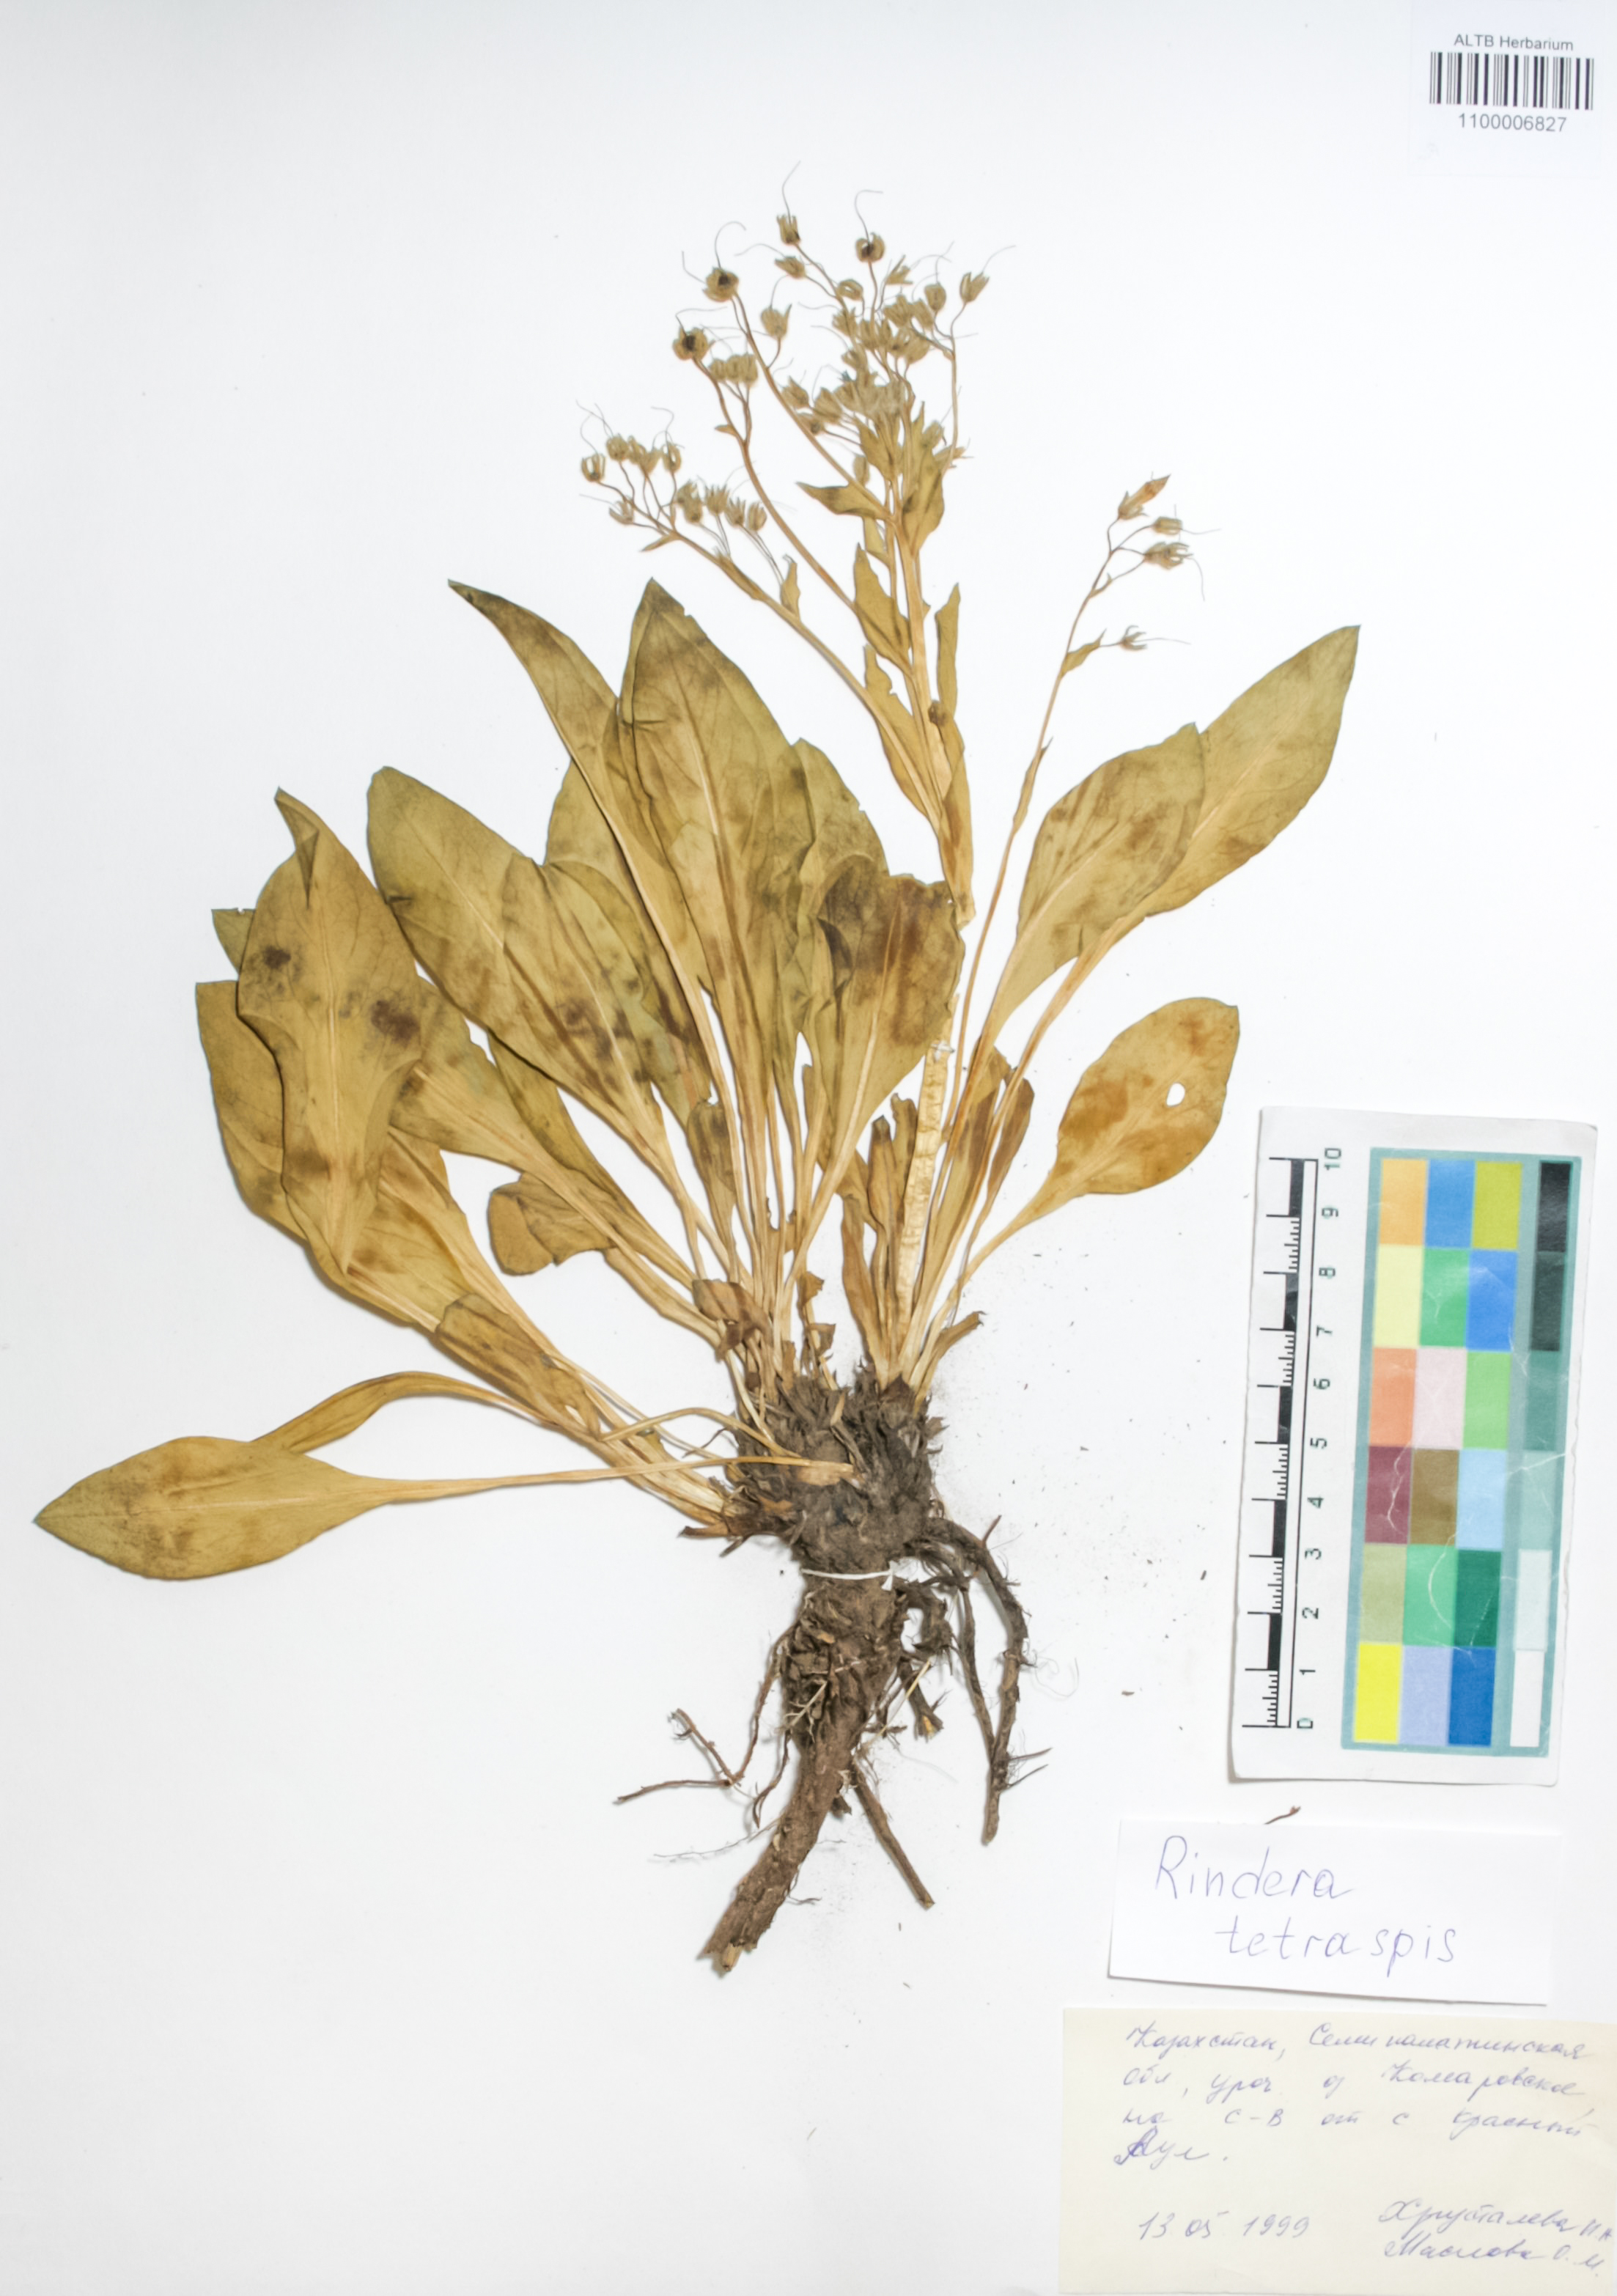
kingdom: Plantae
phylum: Tracheophyta
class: Magnoliopsida
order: Boraginales
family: Boraginaceae
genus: Rindera
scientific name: Rindera tetraspis
